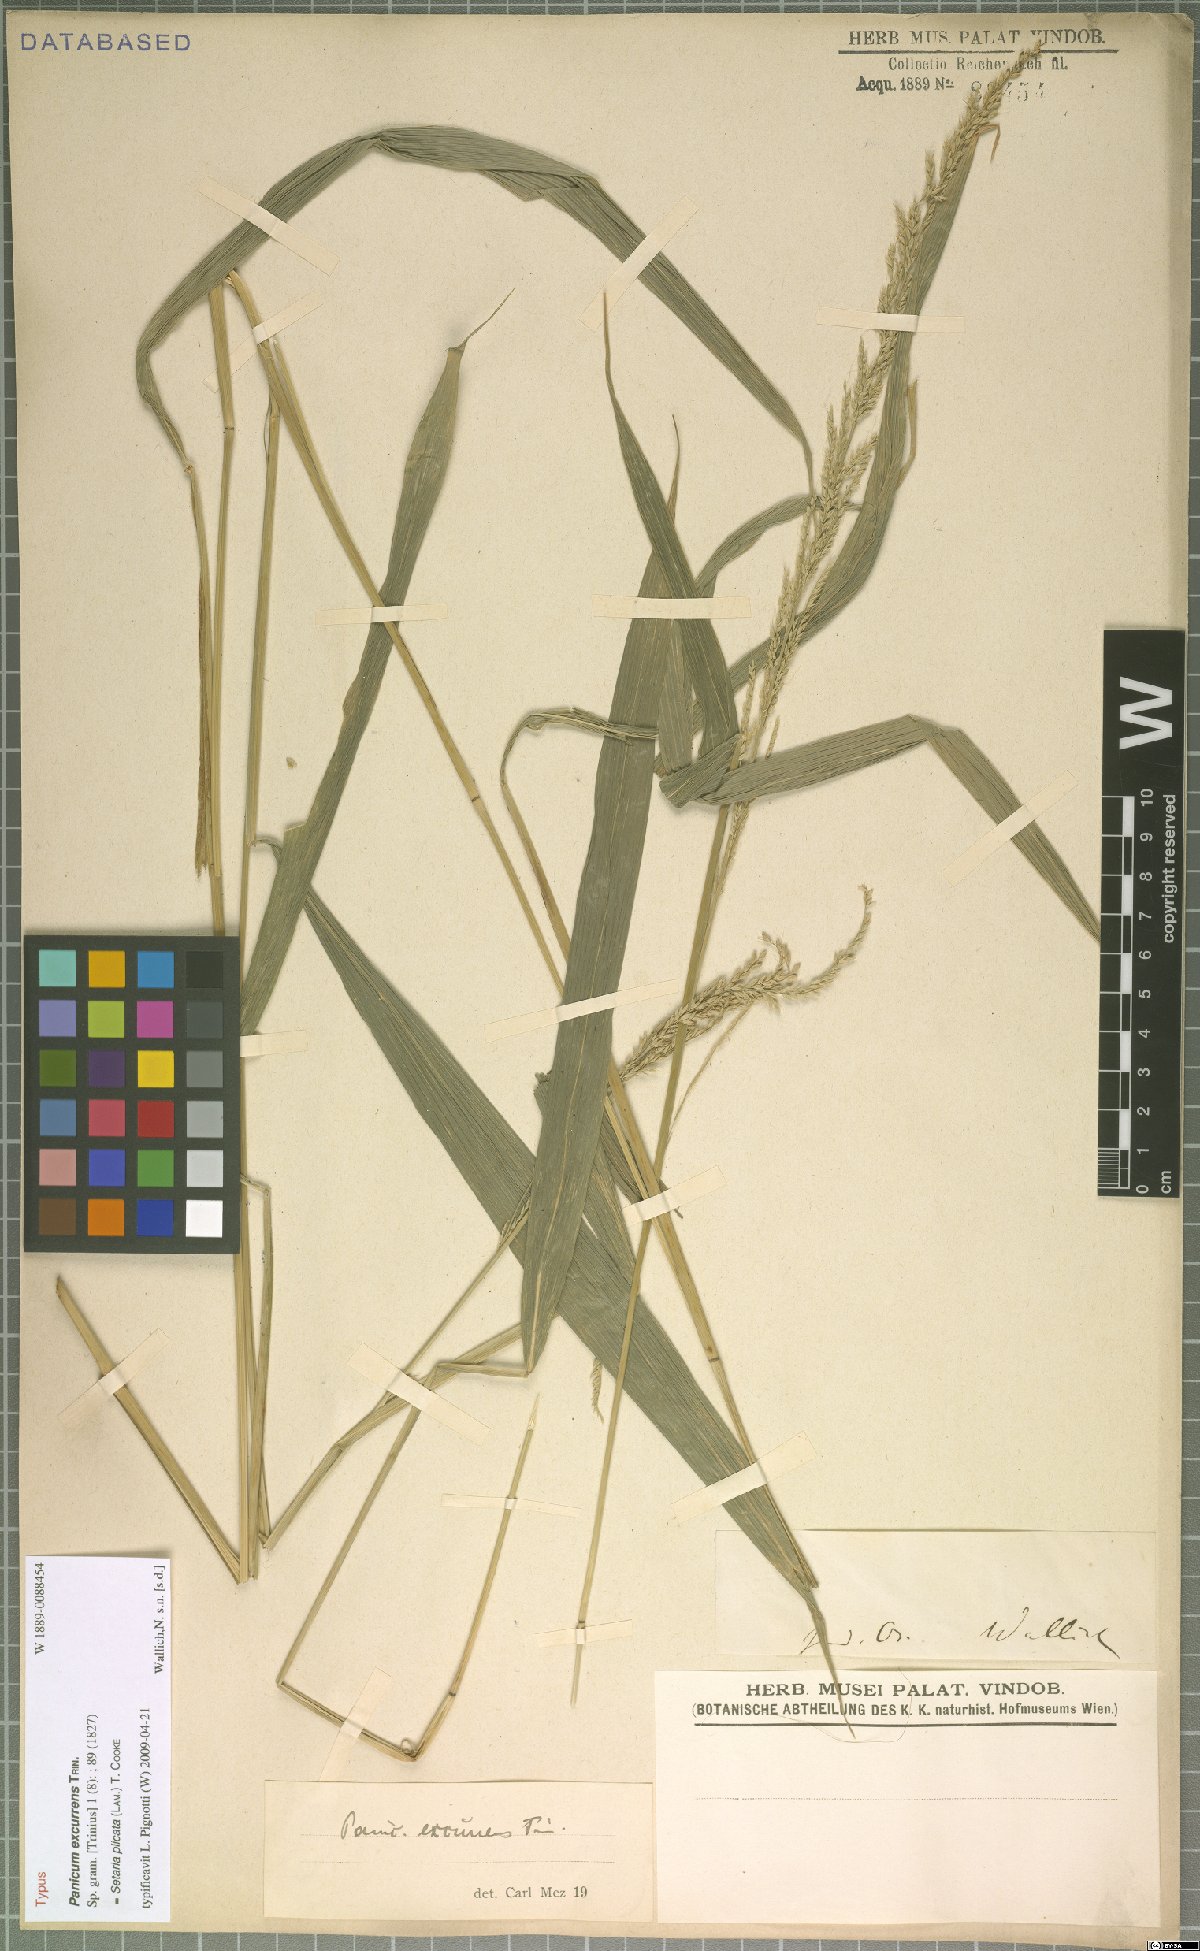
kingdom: Plantae
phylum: Tracheophyta
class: Liliopsida
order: Poales
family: Poaceae
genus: Setaria
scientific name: Setaria plicata
